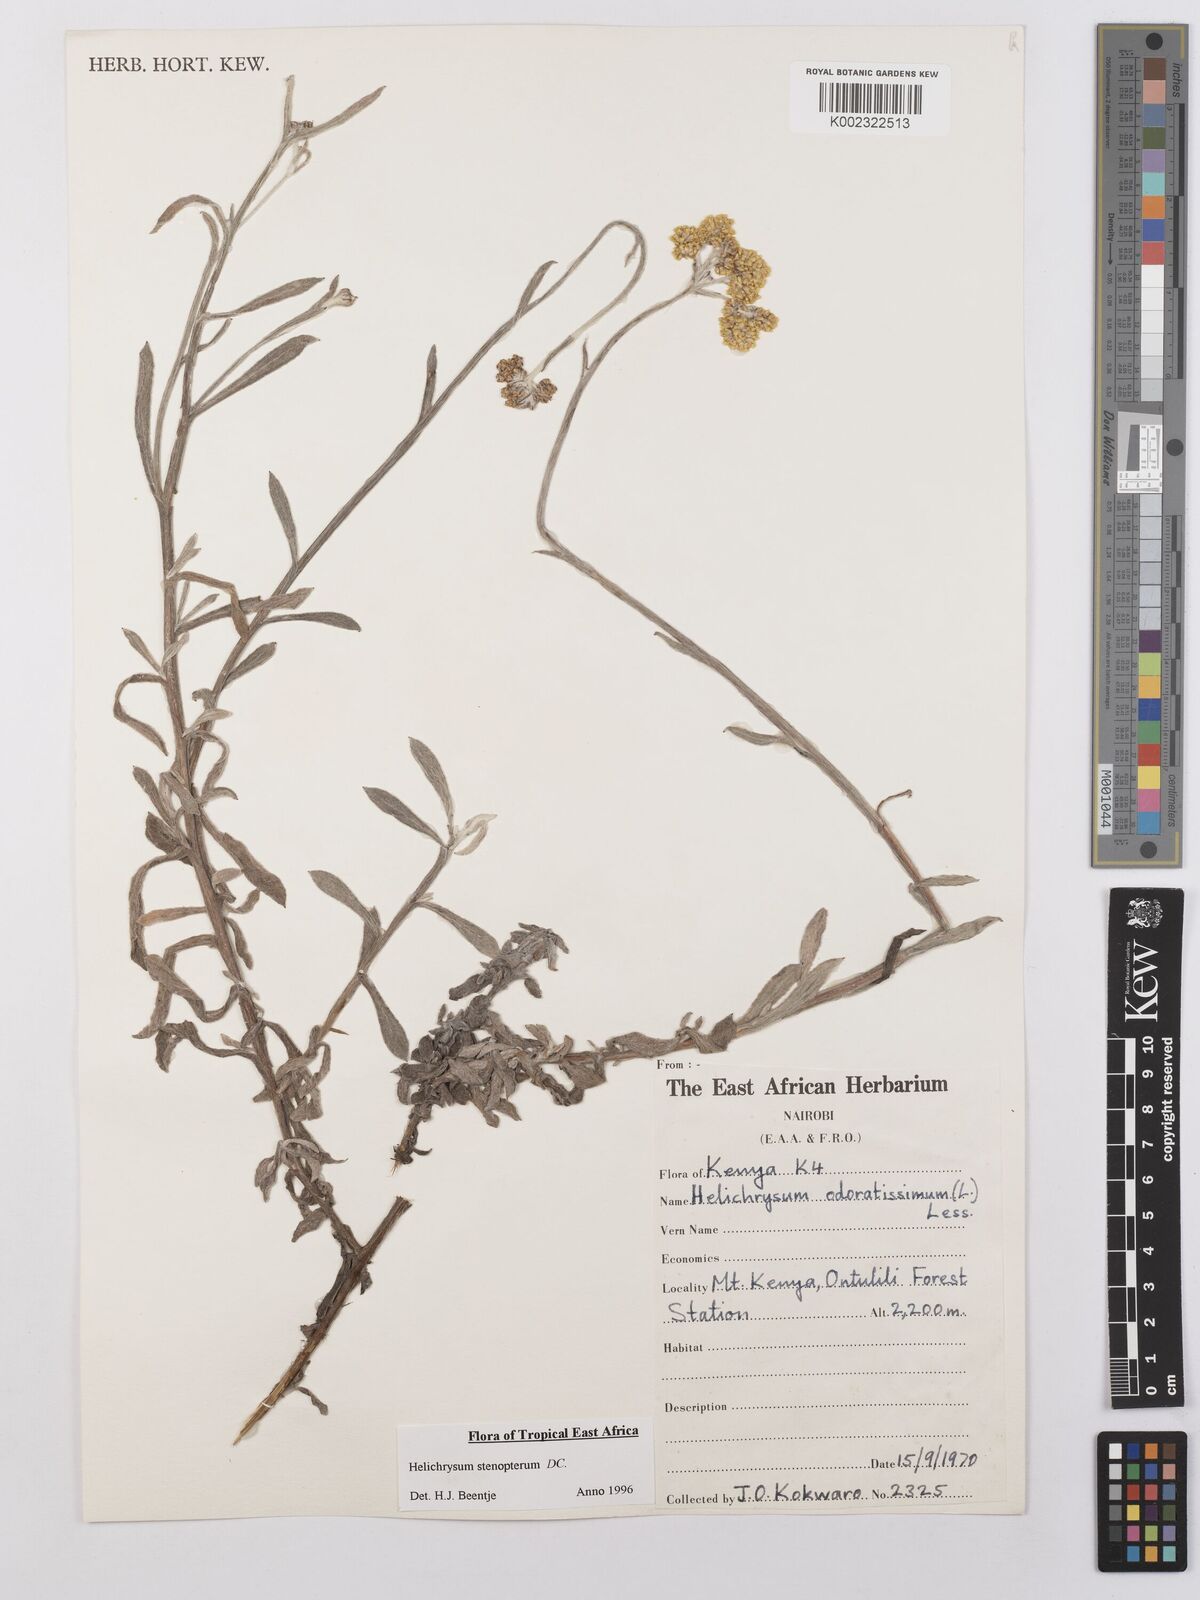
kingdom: Plantae
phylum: Tracheophyta
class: Magnoliopsida
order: Asterales
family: Asteraceae
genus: Helichrysum
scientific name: Helichrysum stenopterum
